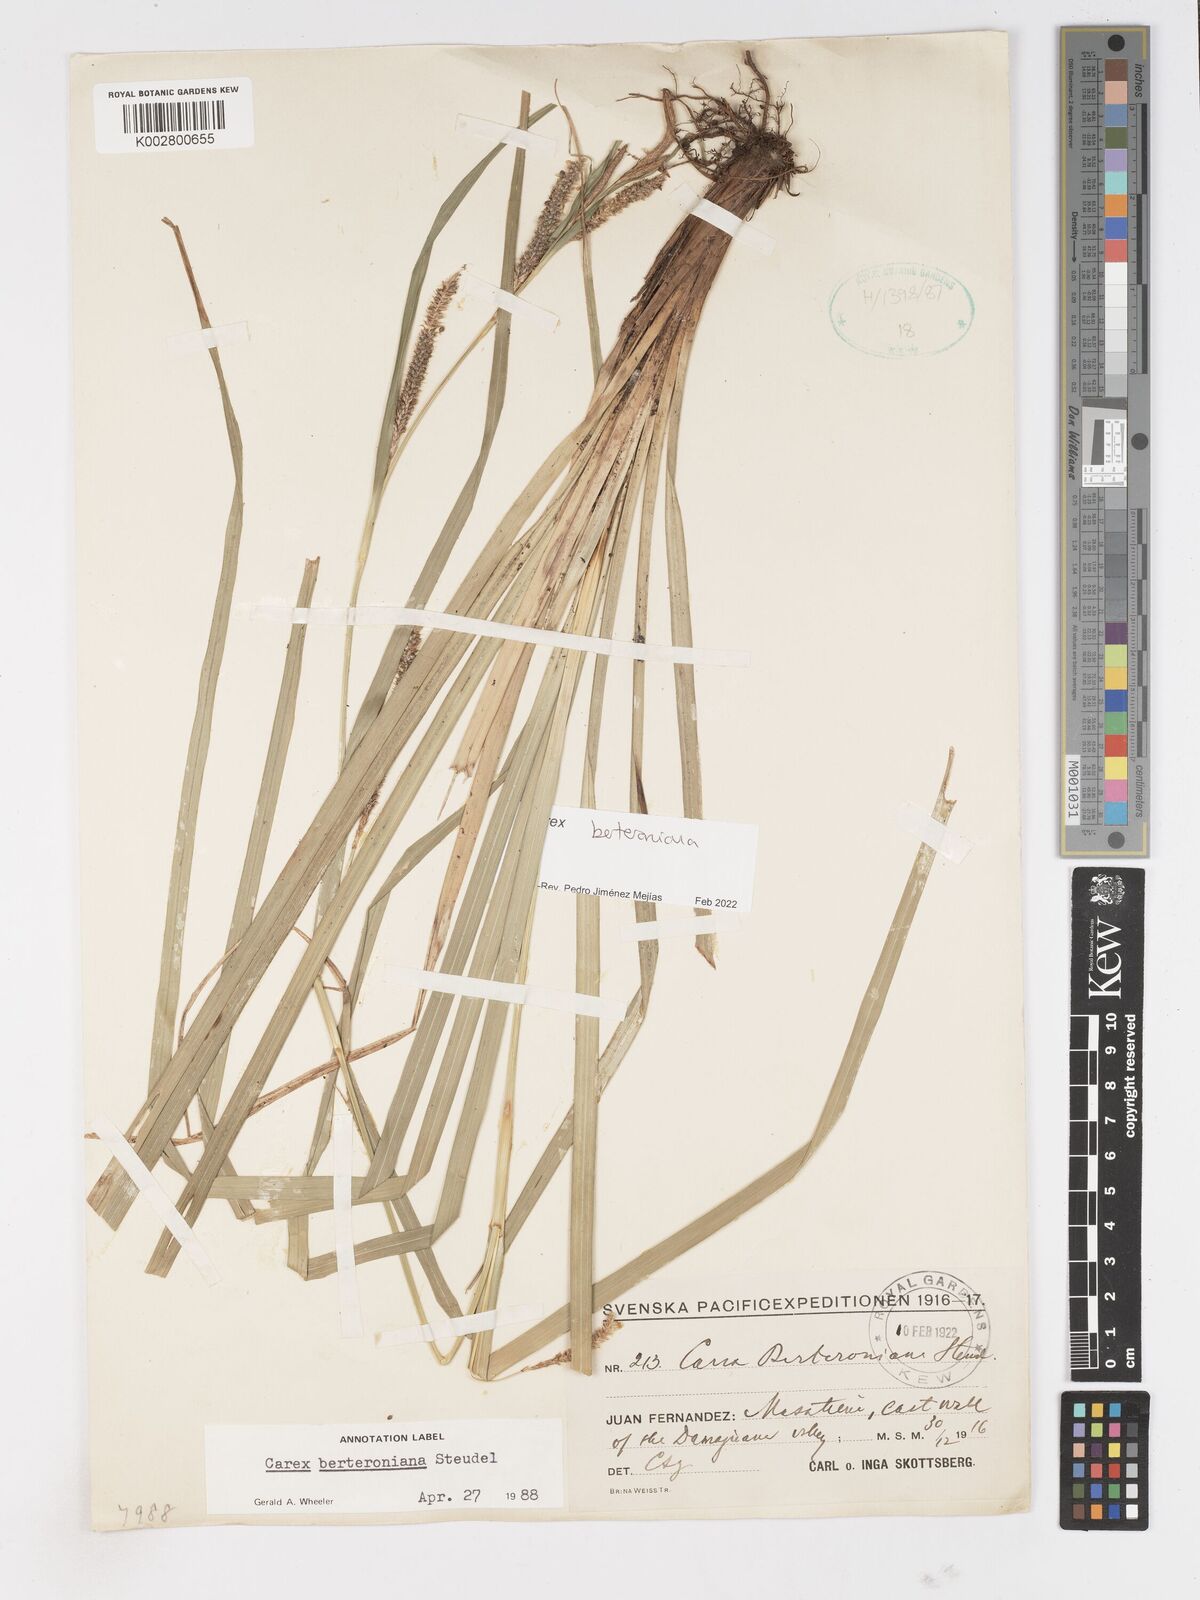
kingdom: Plantae
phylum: Tracheophyta
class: Liliopsida
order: Poales
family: Cyperaceae
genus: Carex
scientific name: Carex berteroniana
